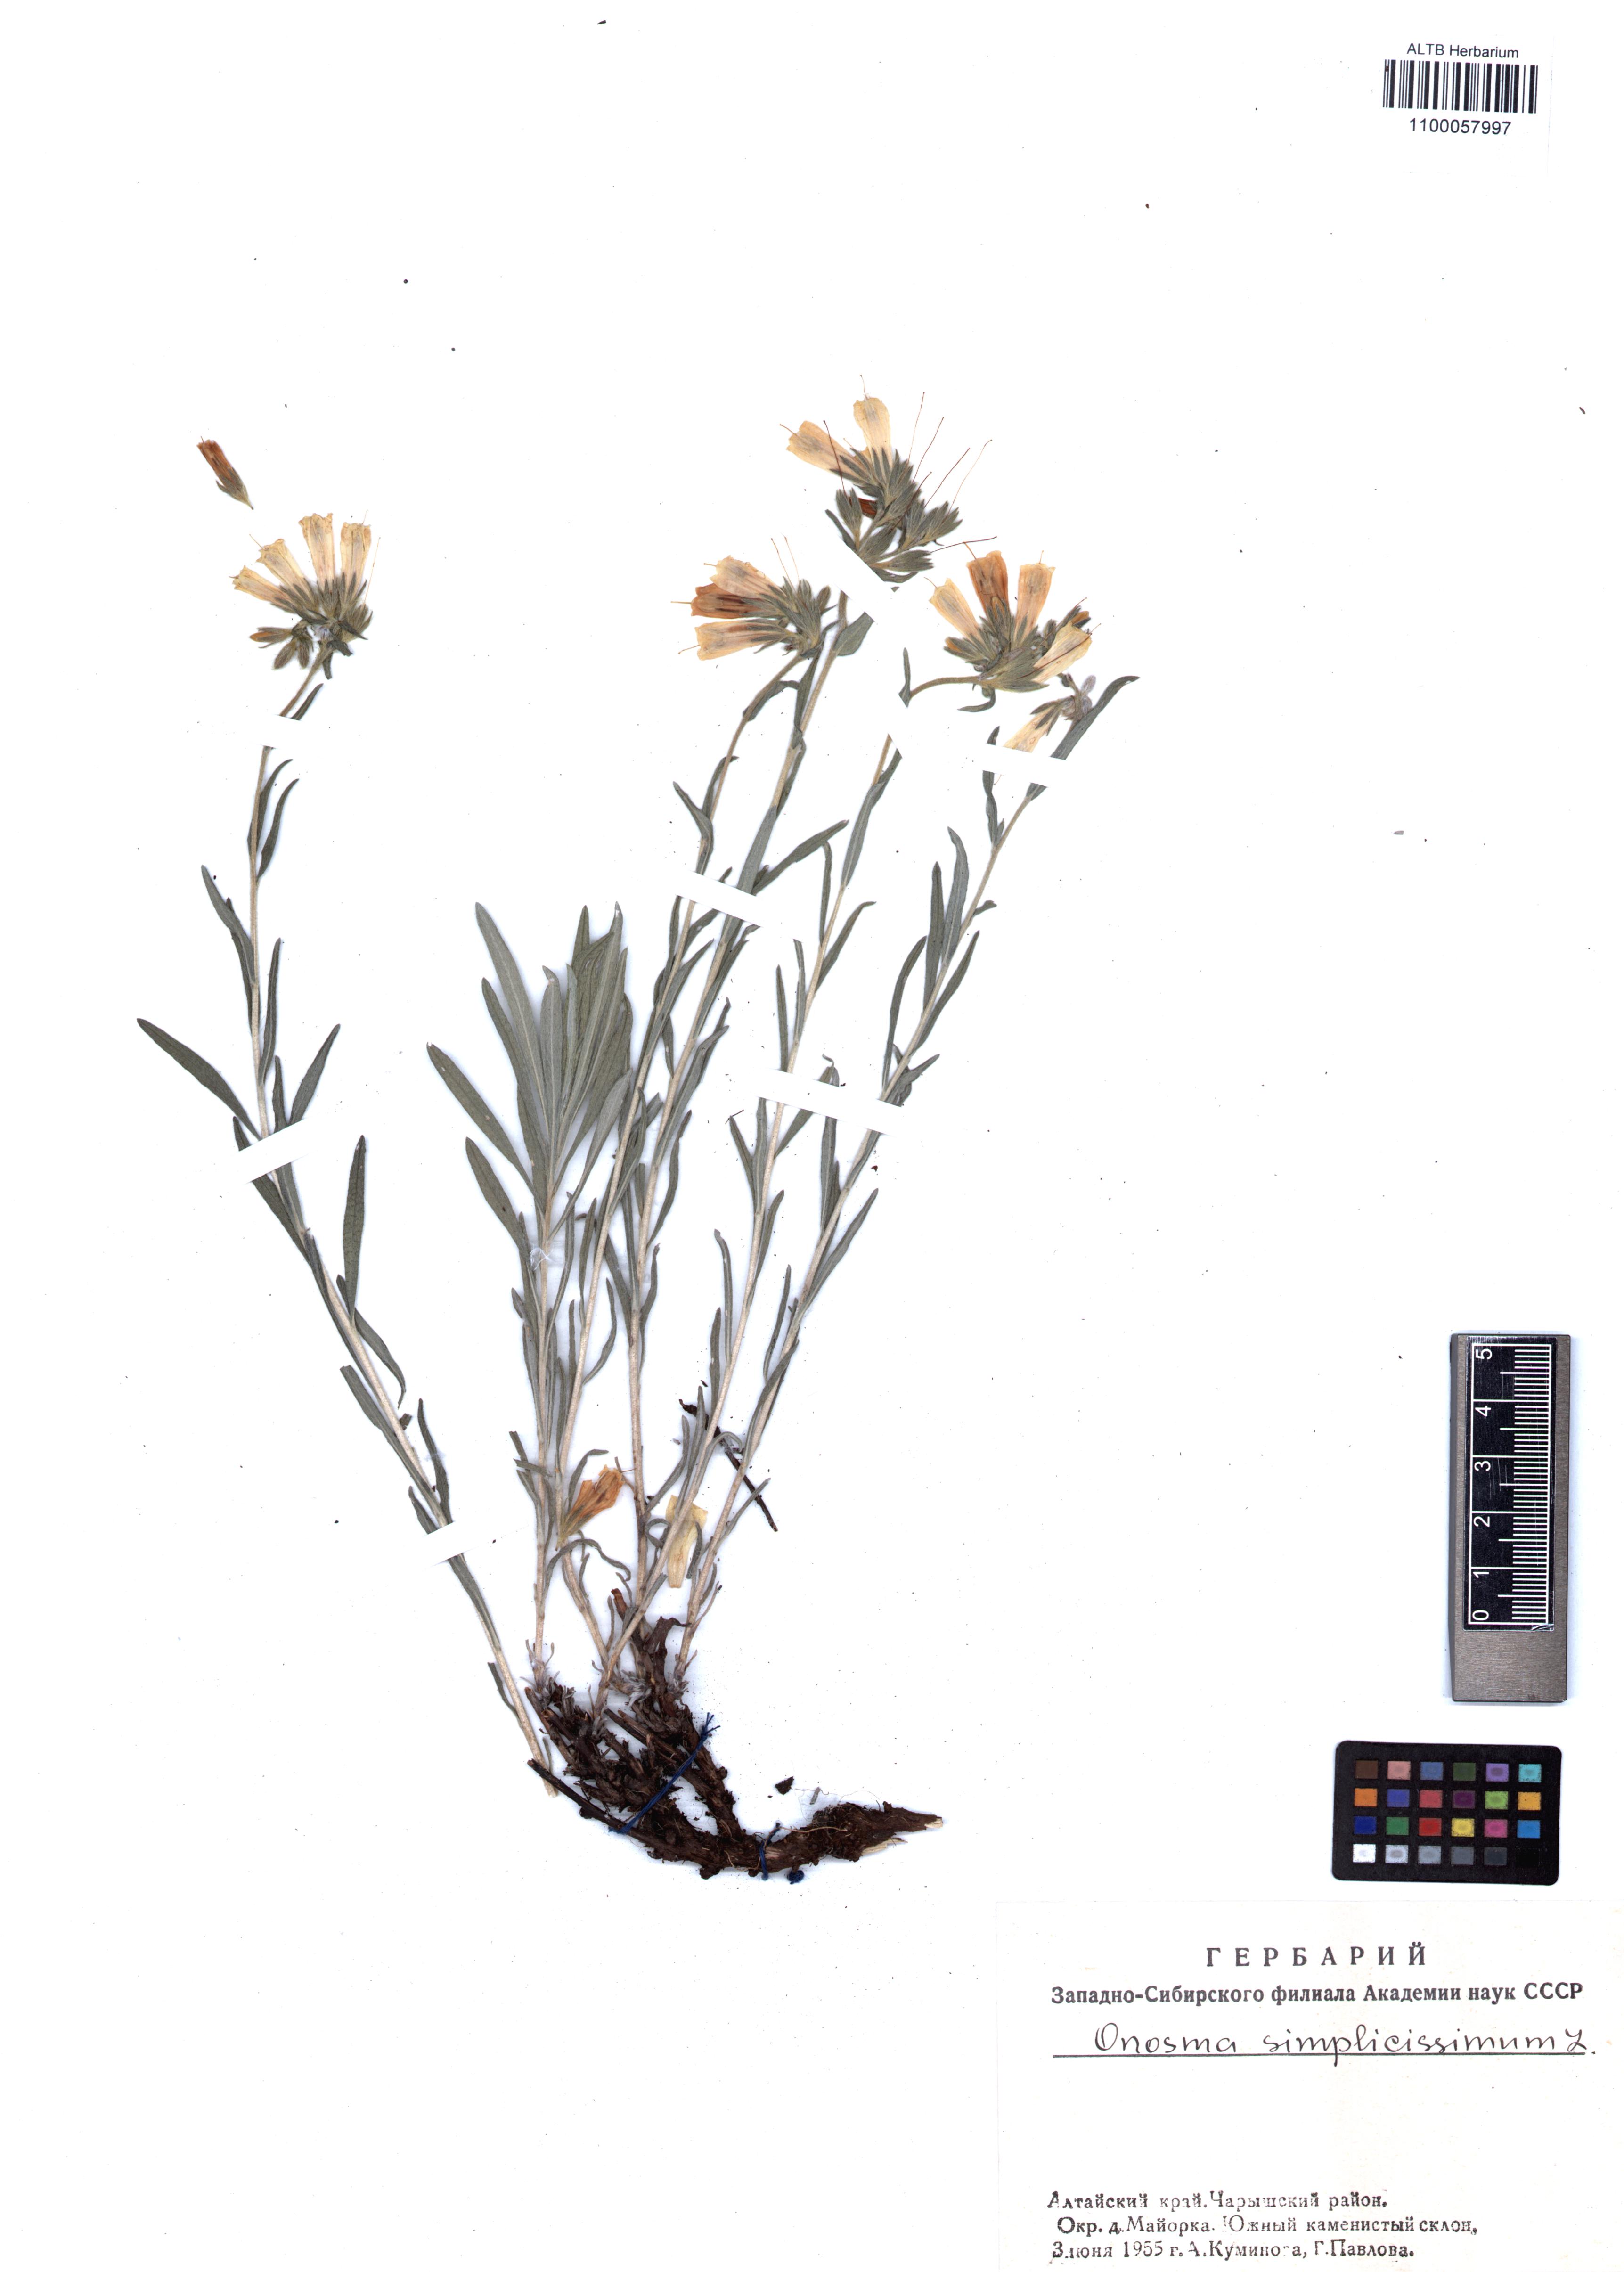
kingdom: Plantae
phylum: Tracheophyta
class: Magnoliopsida
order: Boraginales
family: Boraginaceae
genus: Onosma
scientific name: Onosma simplicissima
